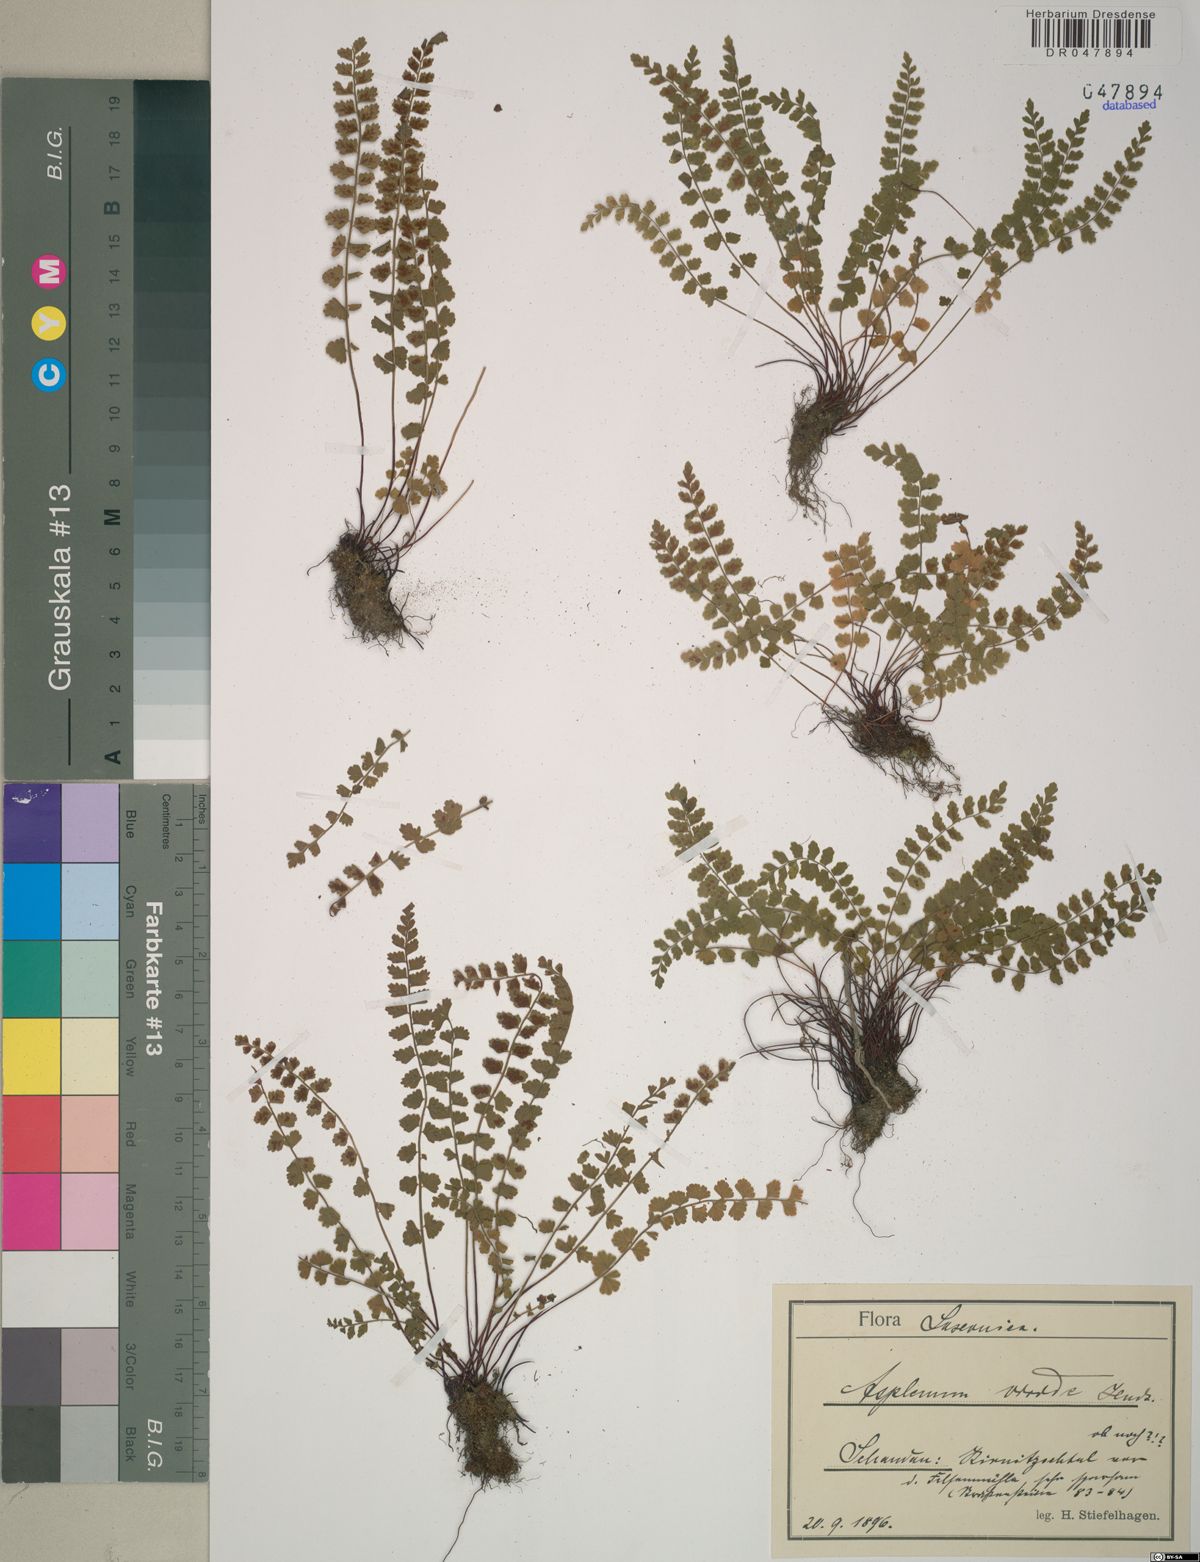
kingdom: Plantae
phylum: Tracheophyta
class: Polypodiopsida
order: Polypodiales
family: Aspleniaceae
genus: Asplenium
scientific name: Asplenium viride
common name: Green spleenwort
